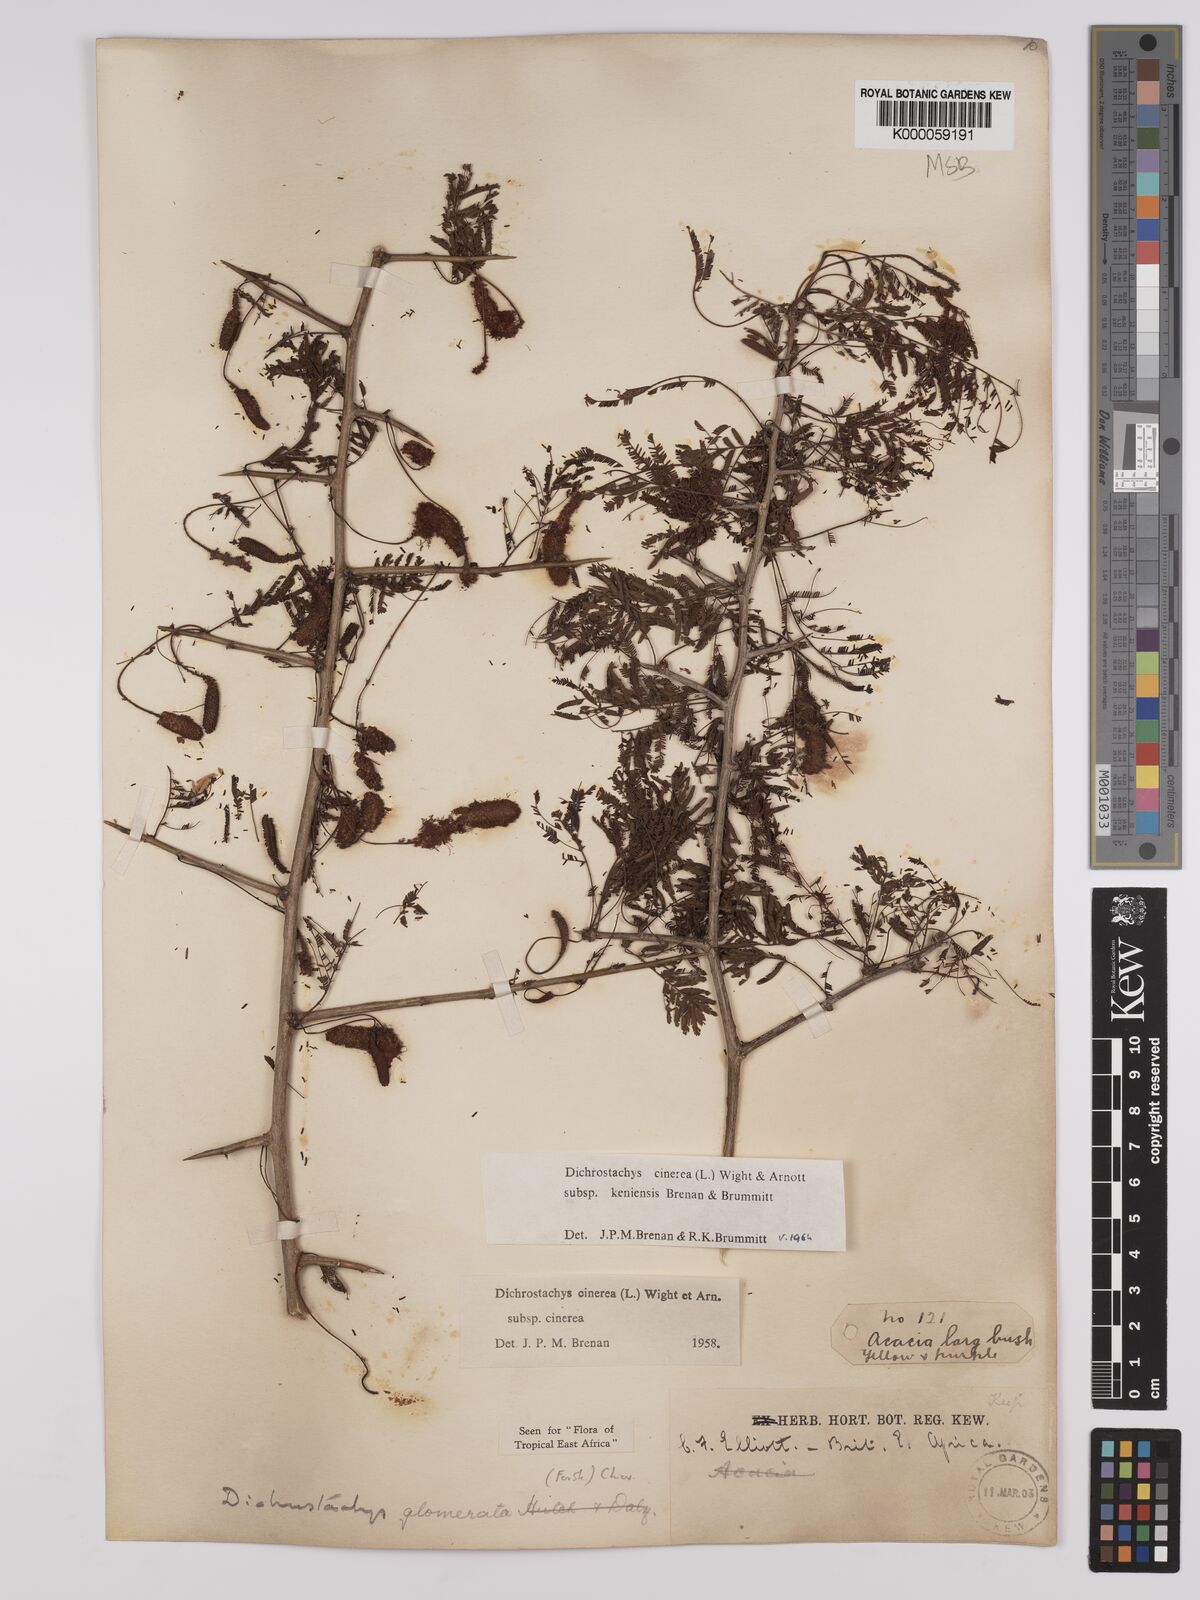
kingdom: Plantae
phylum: Tracheophyta
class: Magnoliopsida
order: Fabales
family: Fabaceae
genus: Dichrostachys
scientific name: Dichrostachys cinerea
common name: Sicklebush
